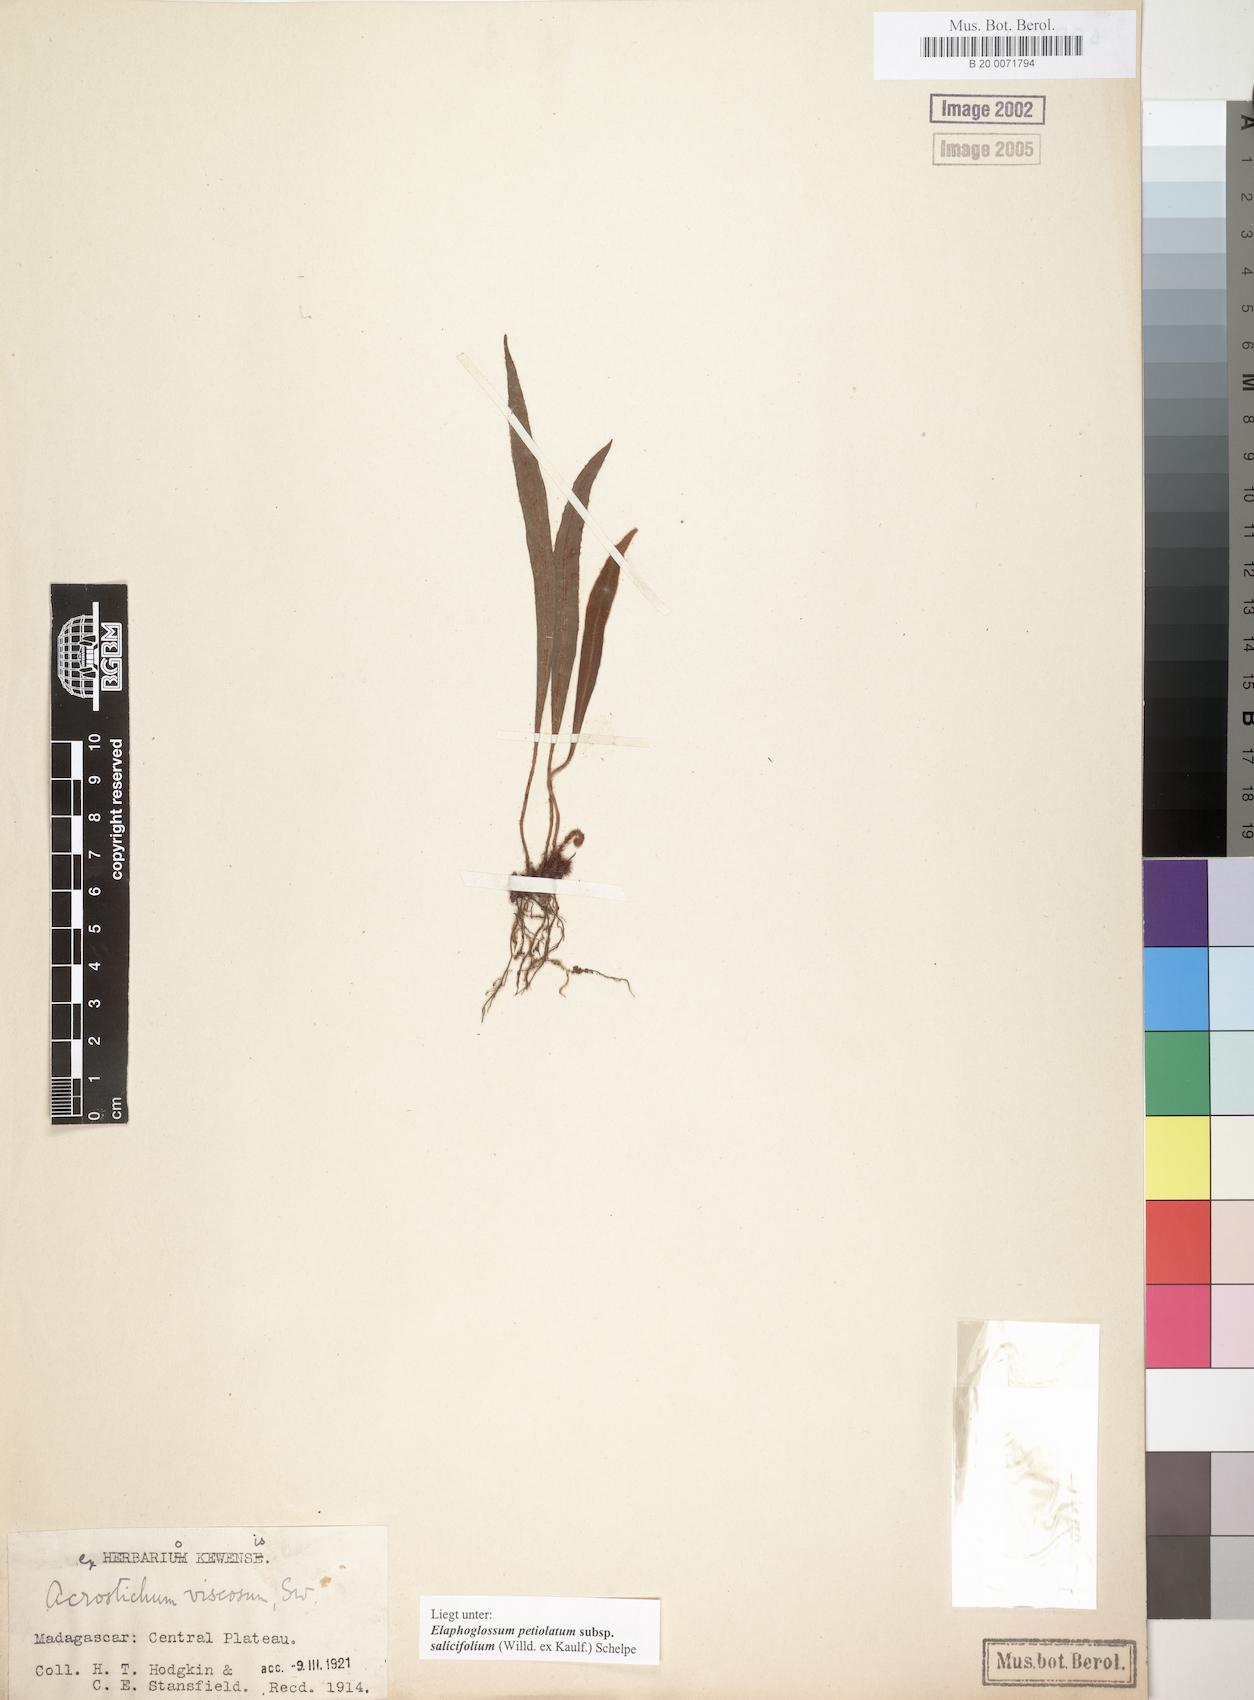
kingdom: Plantae
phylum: Tracheophyta
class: Polypodiopsida
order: Polypodiales
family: Dryopteridaceae
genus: Elaphoglossum
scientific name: Elaphoglossum lancifolium
